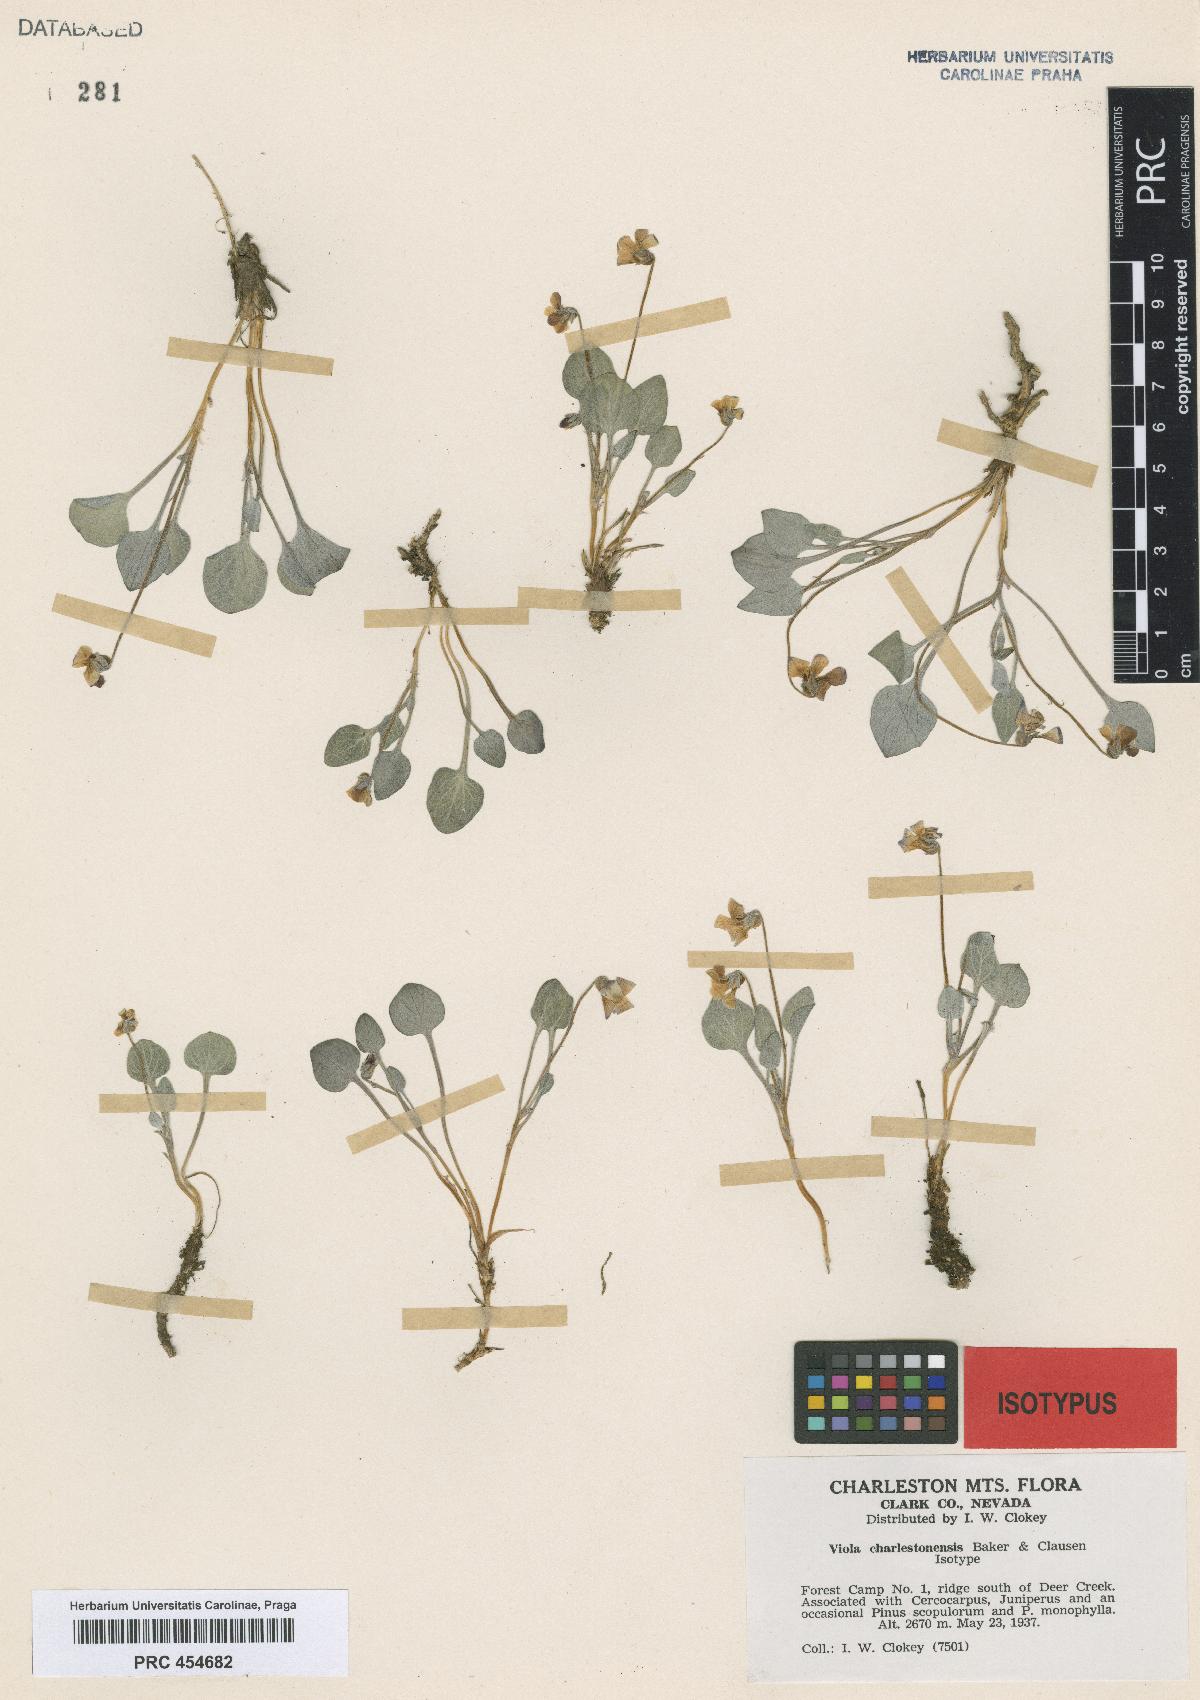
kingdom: Plantae
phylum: Tracheophyta
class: Magnoliopsida
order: Malpighiales
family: Violaceae
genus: Viola
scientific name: Viola charlestonensis
